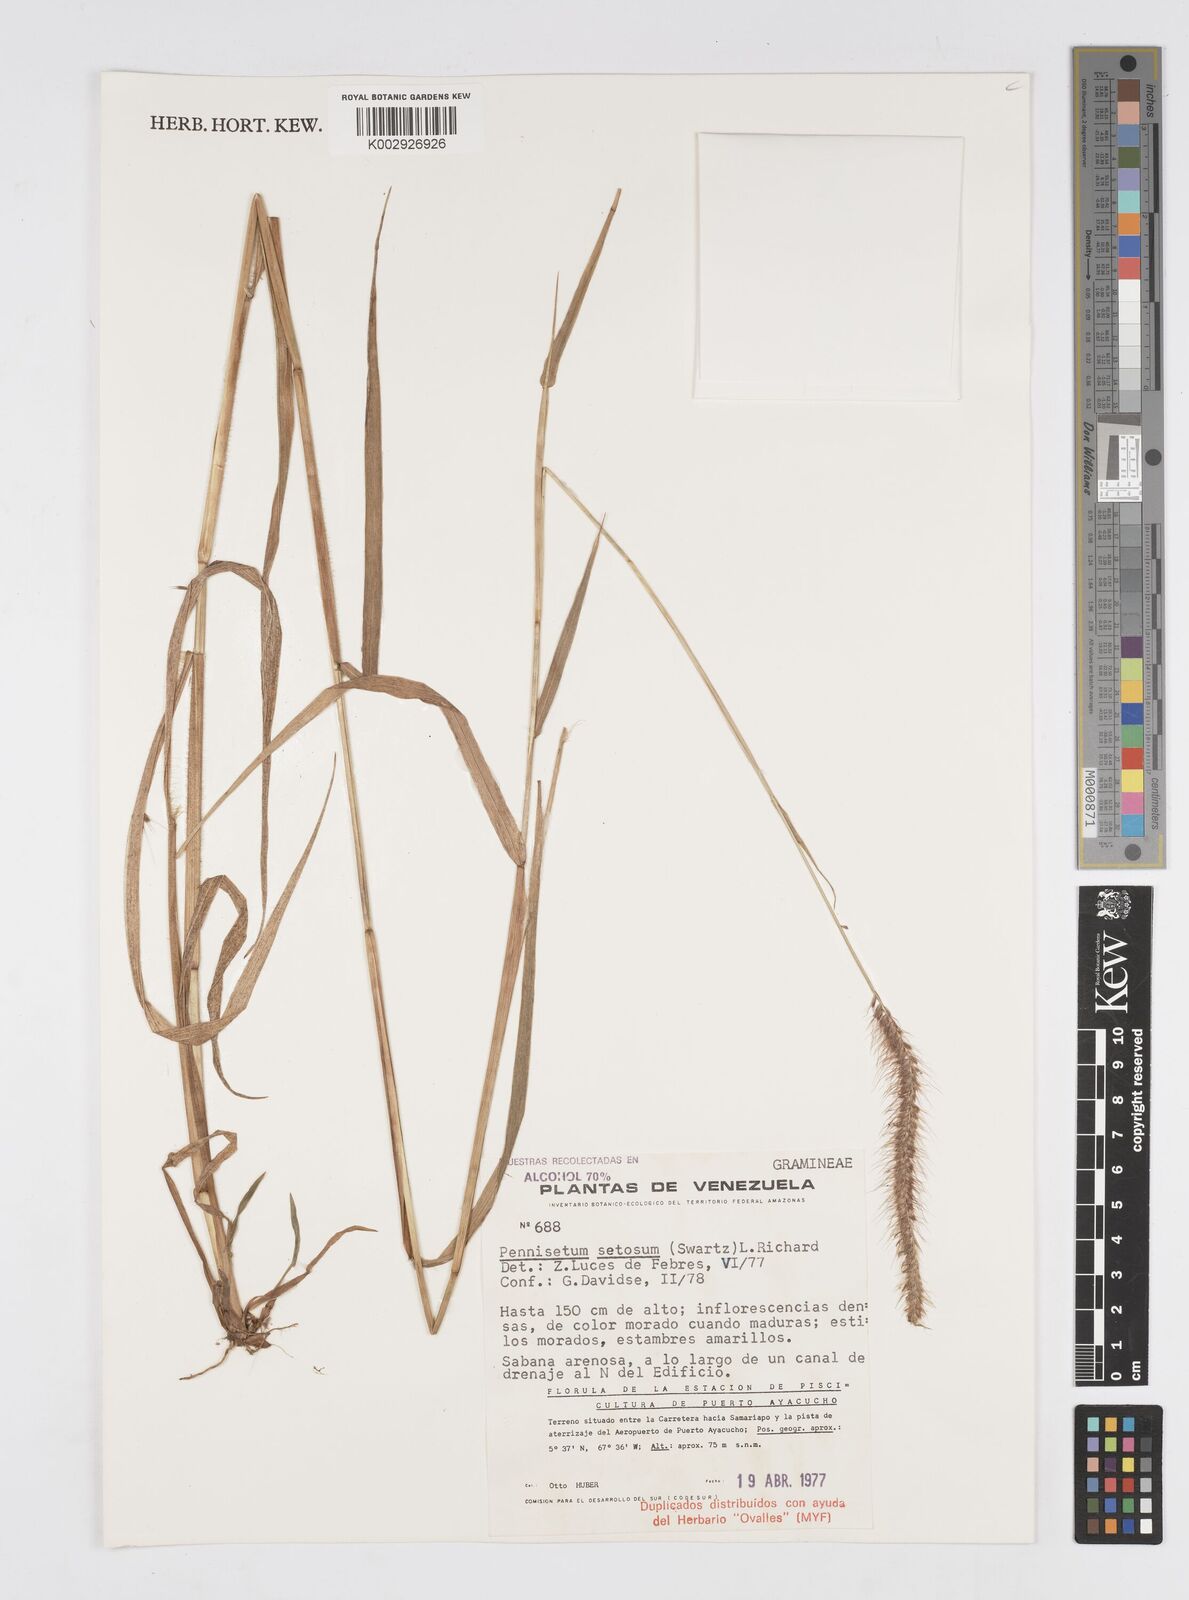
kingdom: Plantae
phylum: Tracheophyta
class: Liliopsida
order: Poales
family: Poaceae
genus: Setaria
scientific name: Setaria parviflora
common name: Knotroot bristle-grass
